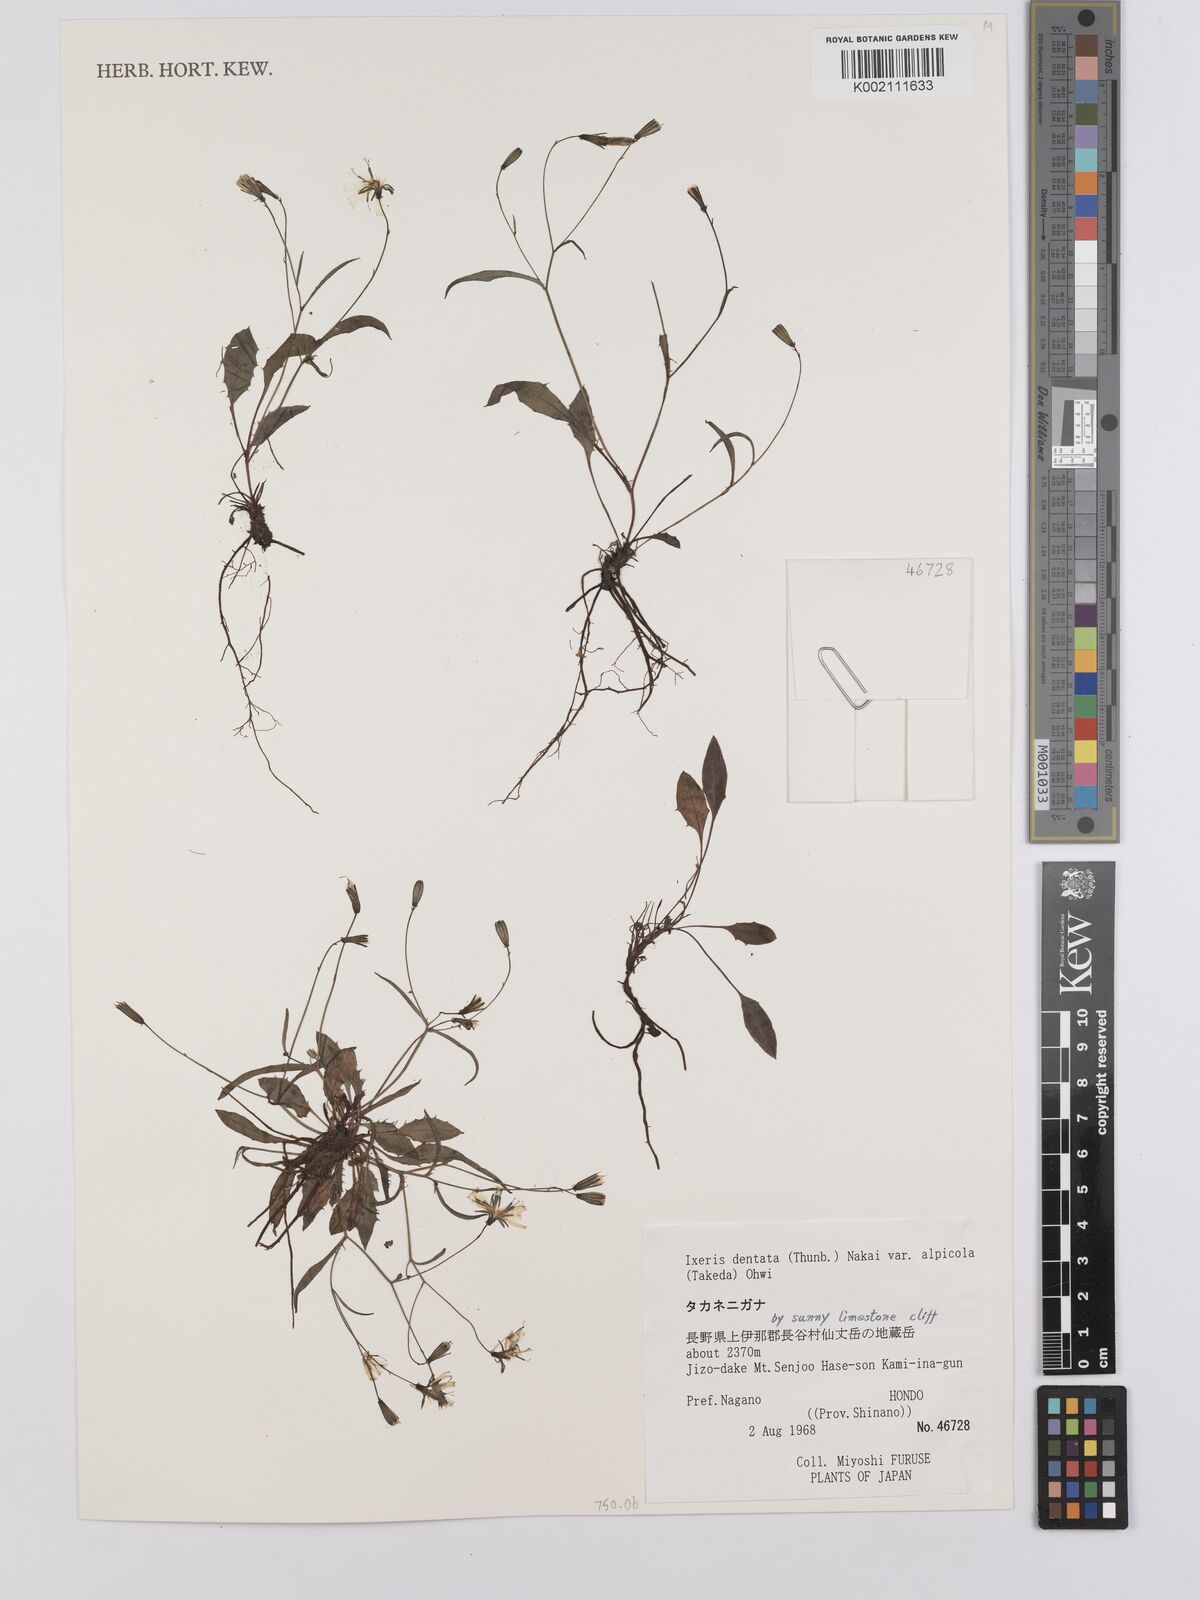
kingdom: Plantae
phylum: Tracheophyta
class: Magnoliopsida
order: Asterales
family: Asteraceae
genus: Ixeridium
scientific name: Ixeridium alpicola
